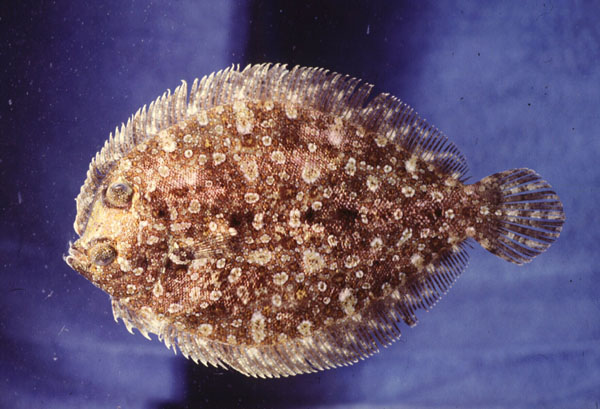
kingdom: Animalia
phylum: Chordata
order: Pleuronectiformes
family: Bothidae
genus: Bothus
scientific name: Bothus podas
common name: Wide-eyed flounder
